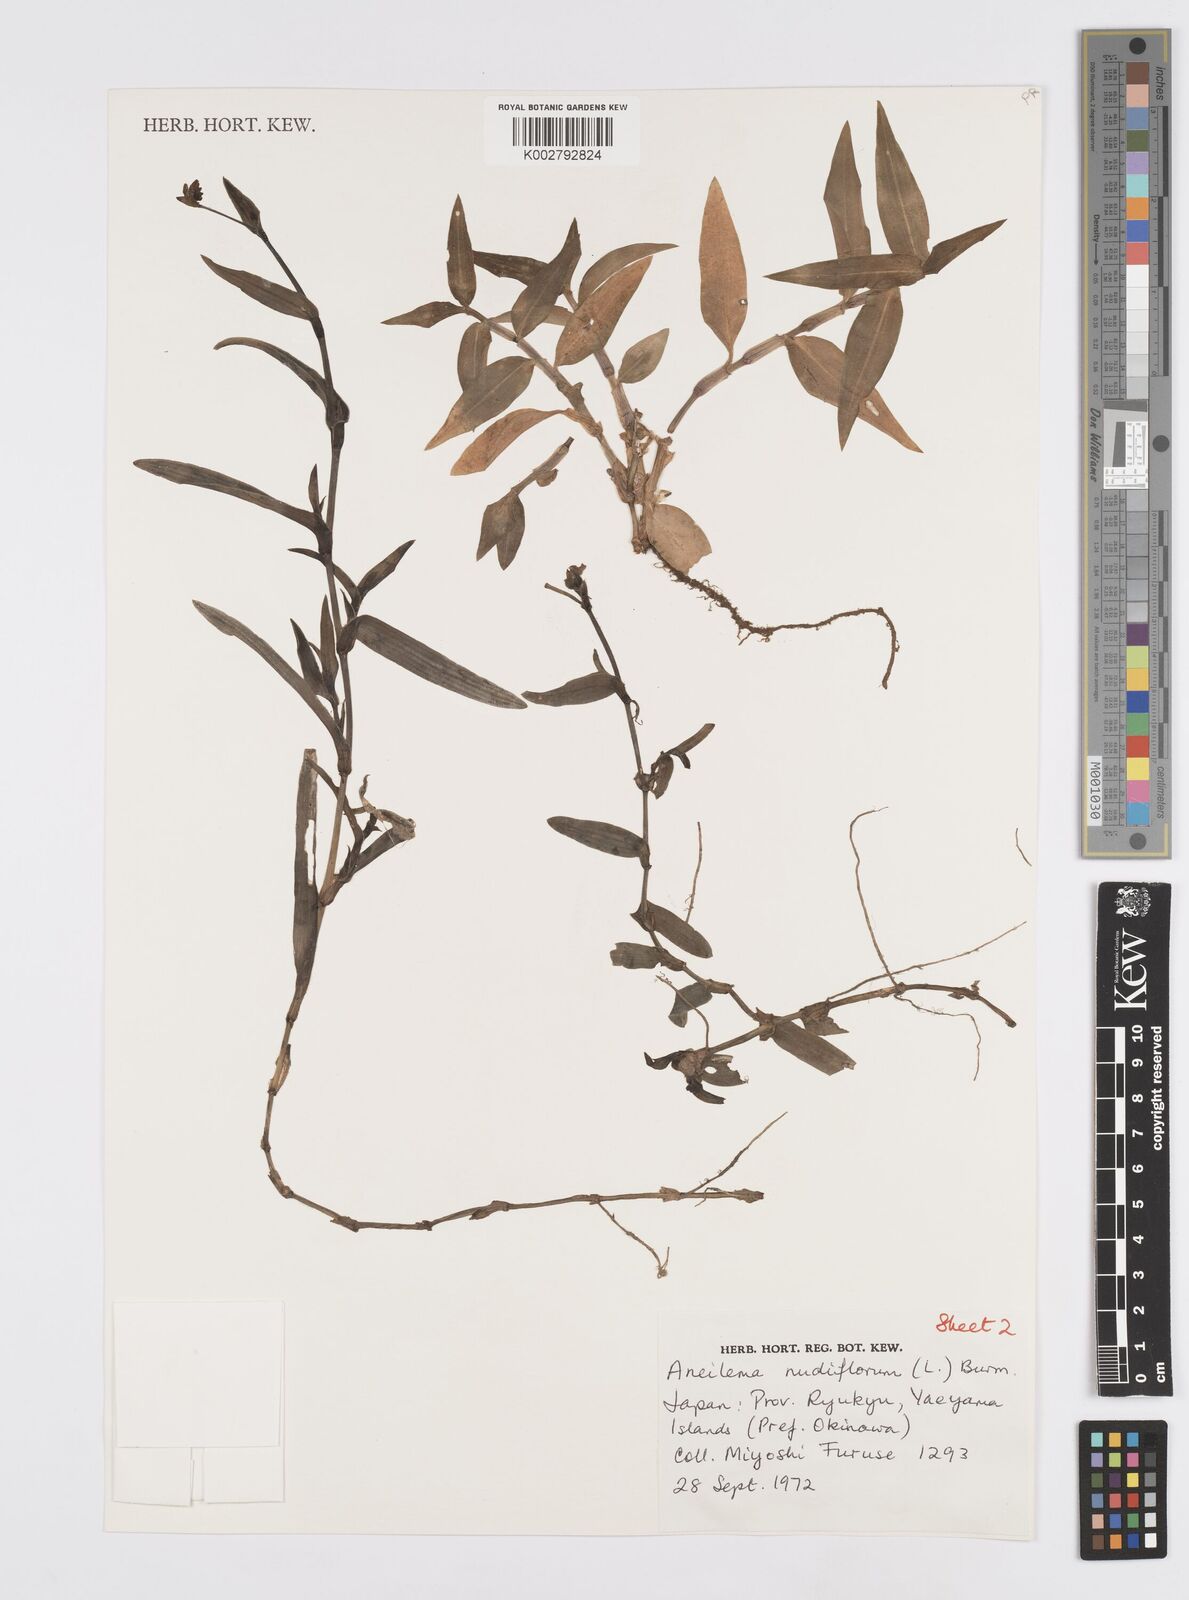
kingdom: Plantae
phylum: Tracheophyta
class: Liliopsida
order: Commelinales
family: Commelinaceae
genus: Murdannia
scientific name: Murdannia nudiflora
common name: Nakedstem dewflower
